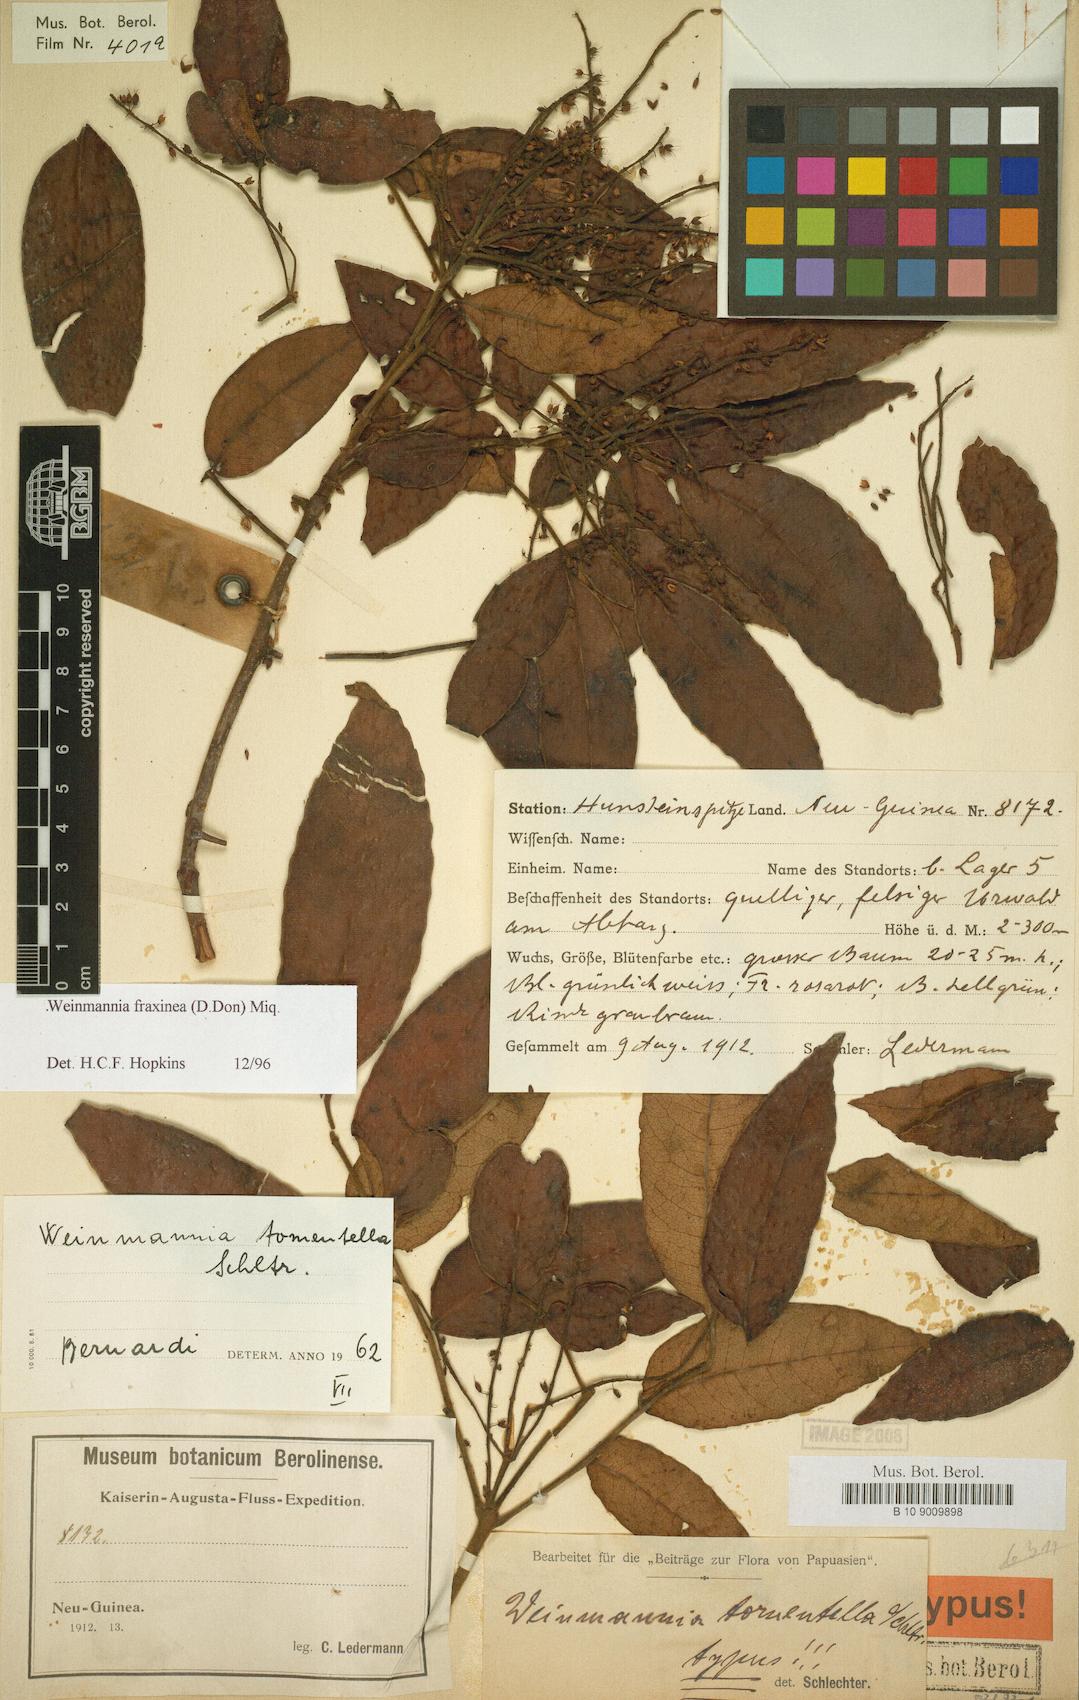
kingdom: Plantae
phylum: Tracheophyta
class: Magnoliopsida
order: Oxalidales
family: Cunoniaceae
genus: Pterophylla
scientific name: Pterophylla fraxinea
